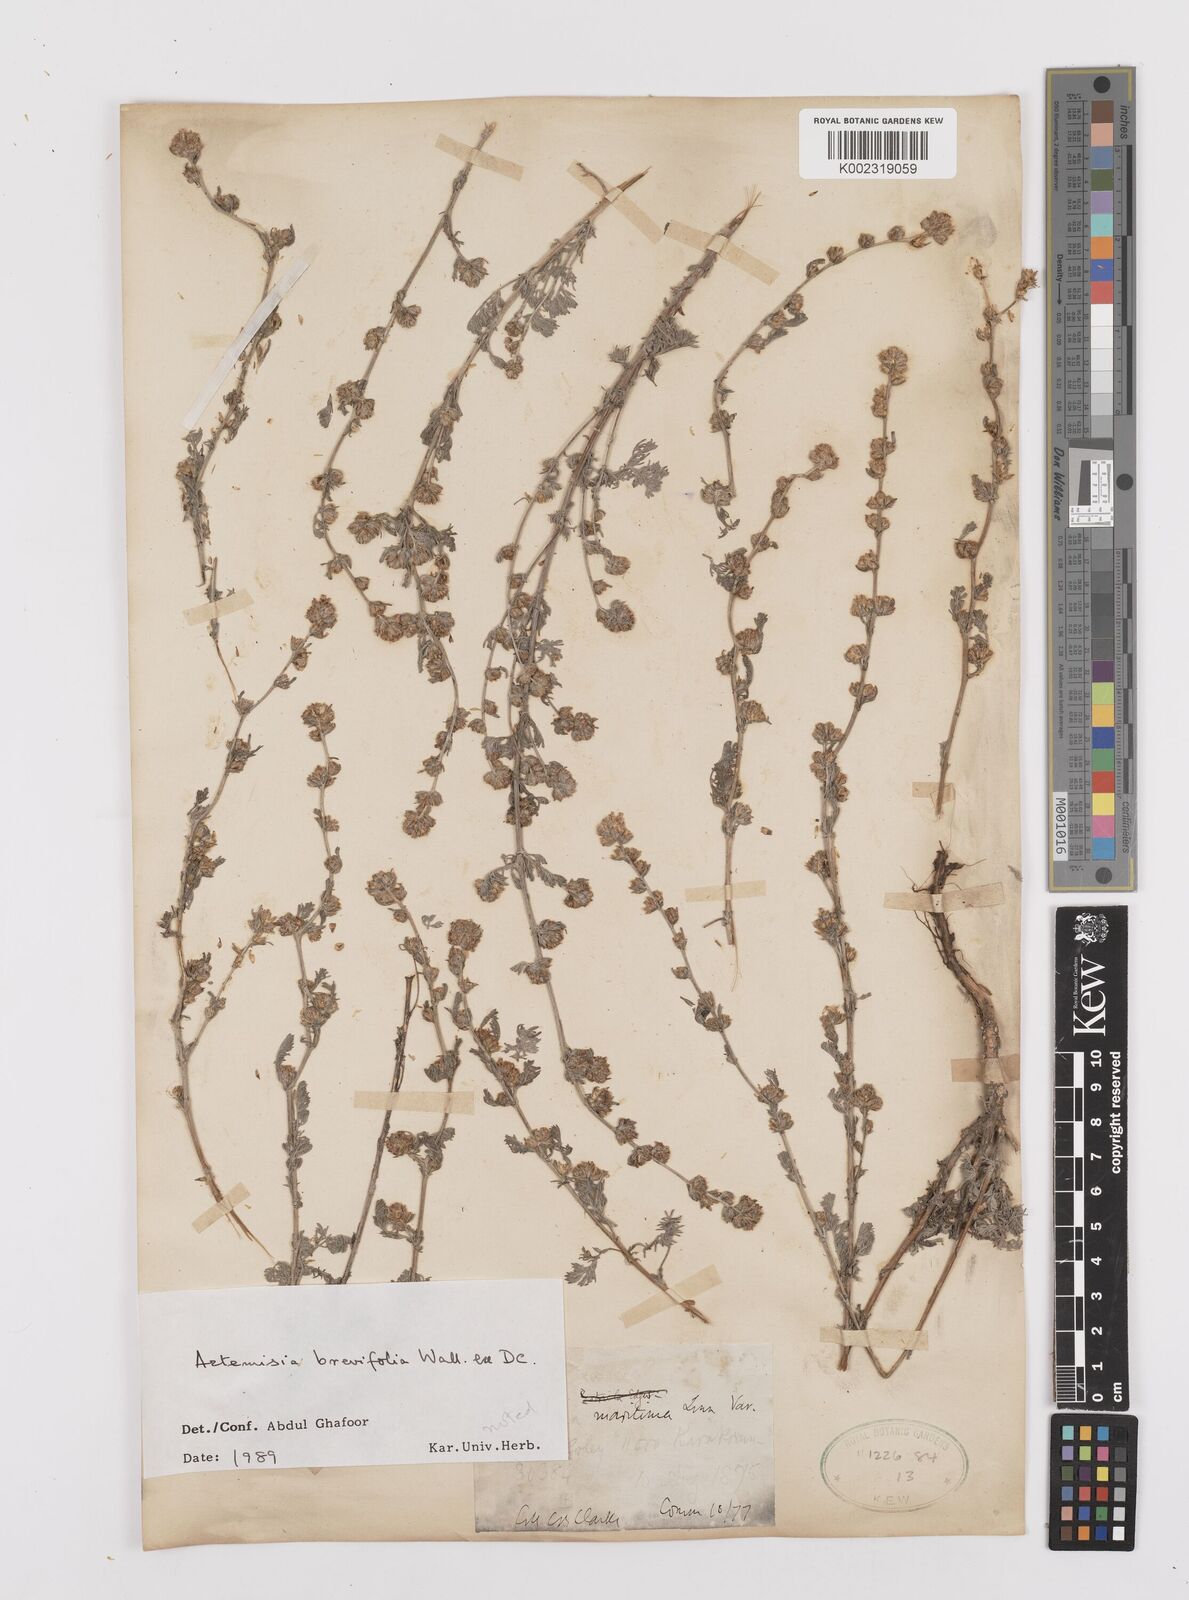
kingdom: Plantae
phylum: Tracheophyta
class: Magnoliopsida
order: Asterales
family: Asteraceae
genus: Artemisia
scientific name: Artemisia brevifolia
